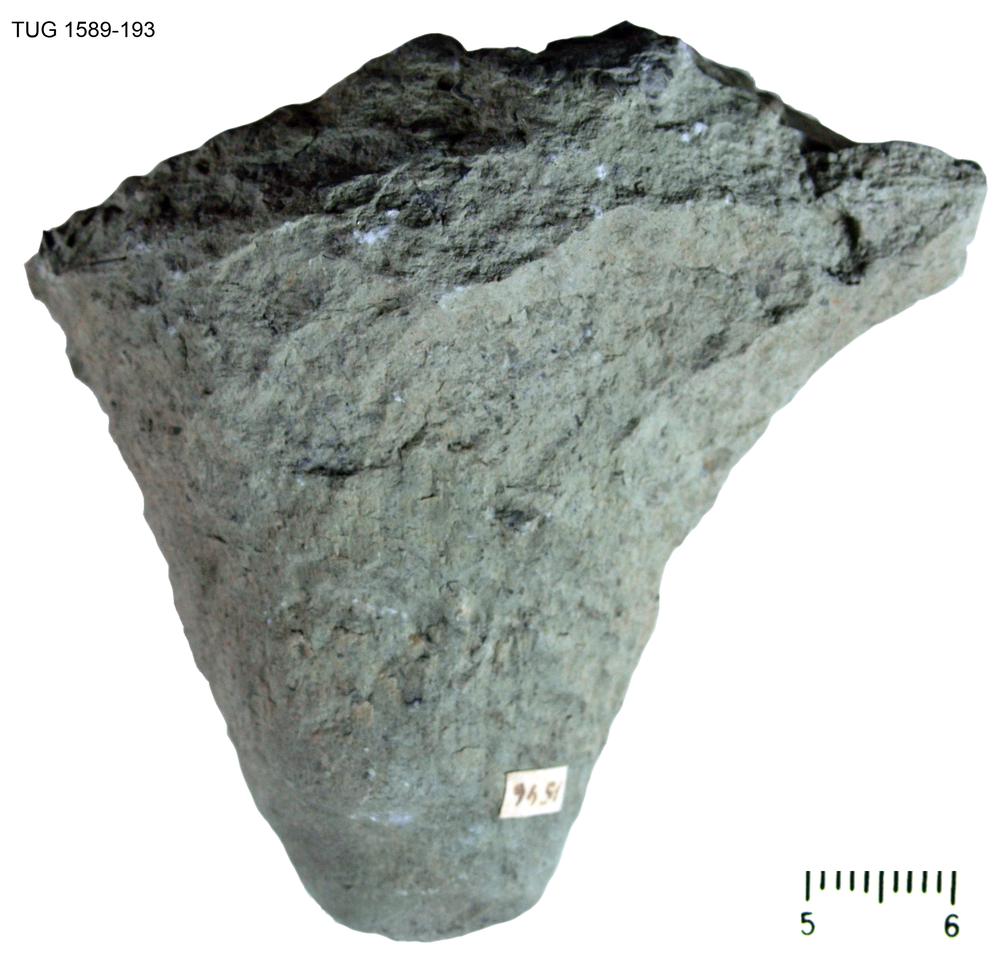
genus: Conichnus
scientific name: Conichnus
